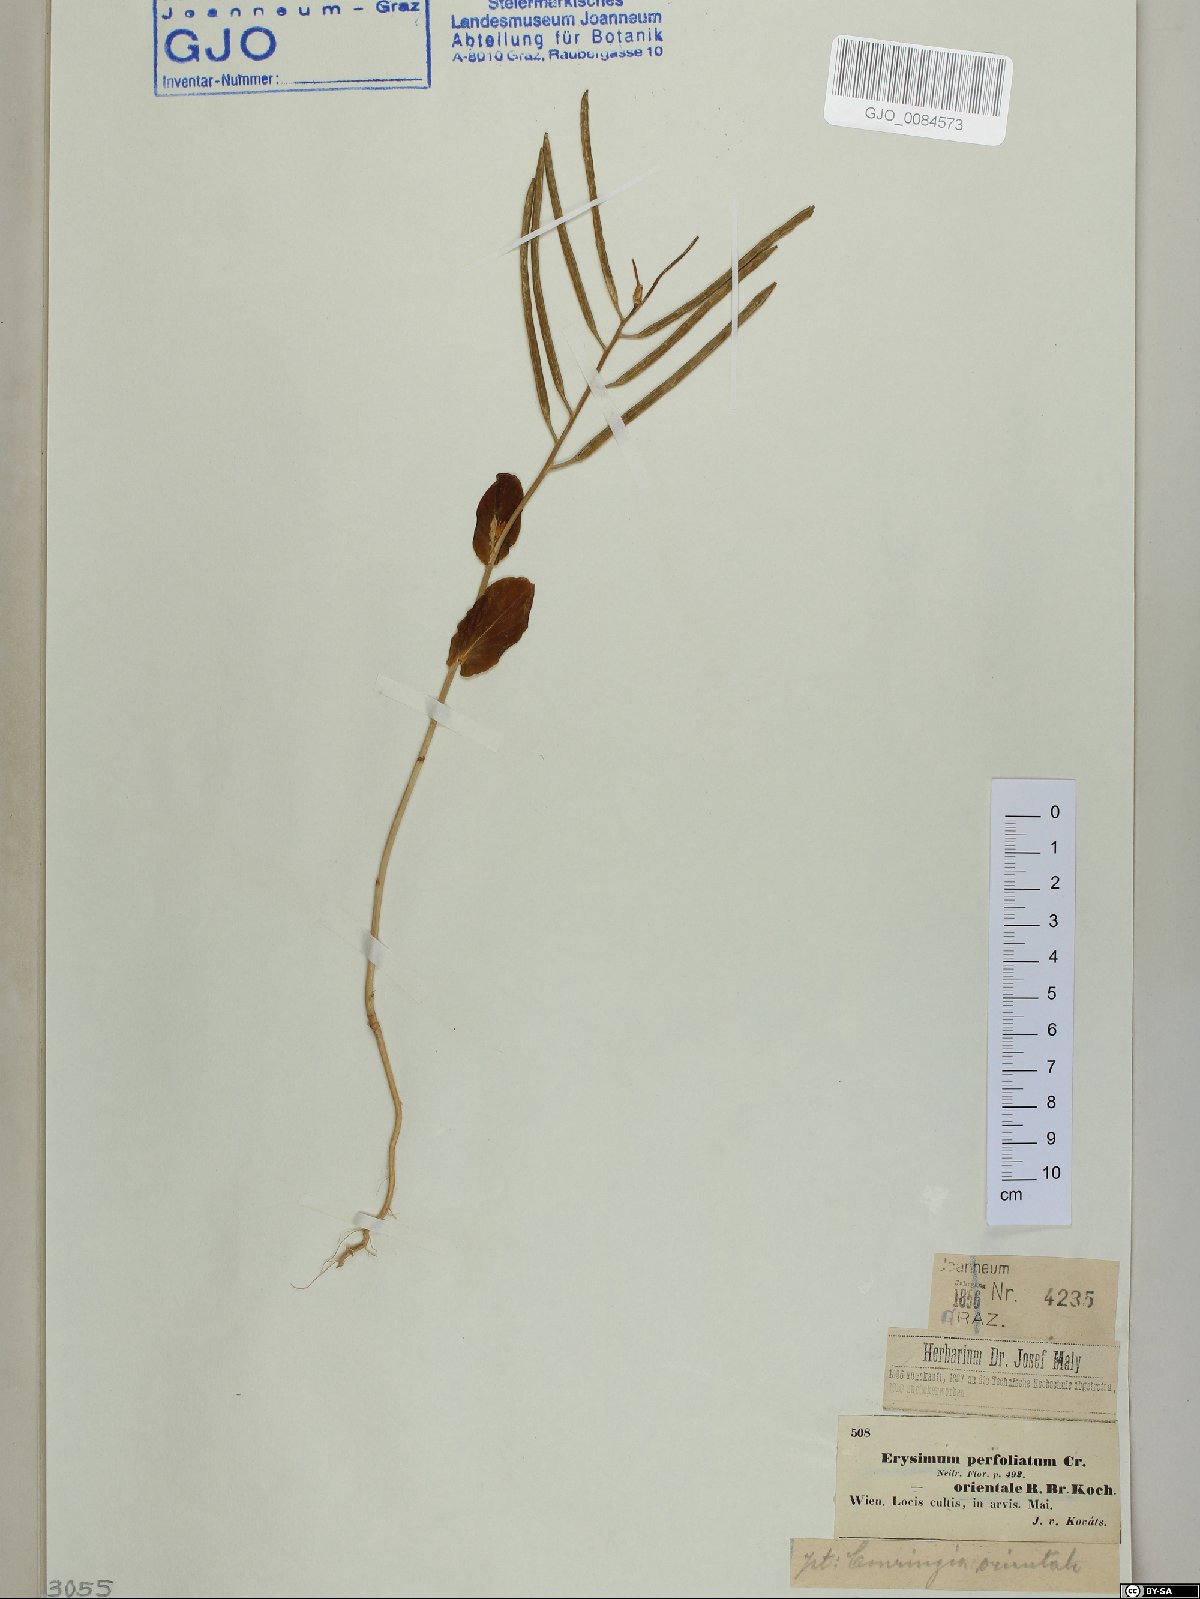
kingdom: Plantae
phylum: Tracheophyta
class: Magnoliopsida
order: Brassicales
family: Brassicaceae
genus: Conringia
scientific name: Conringia orientalis
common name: Hare's ear mustard
